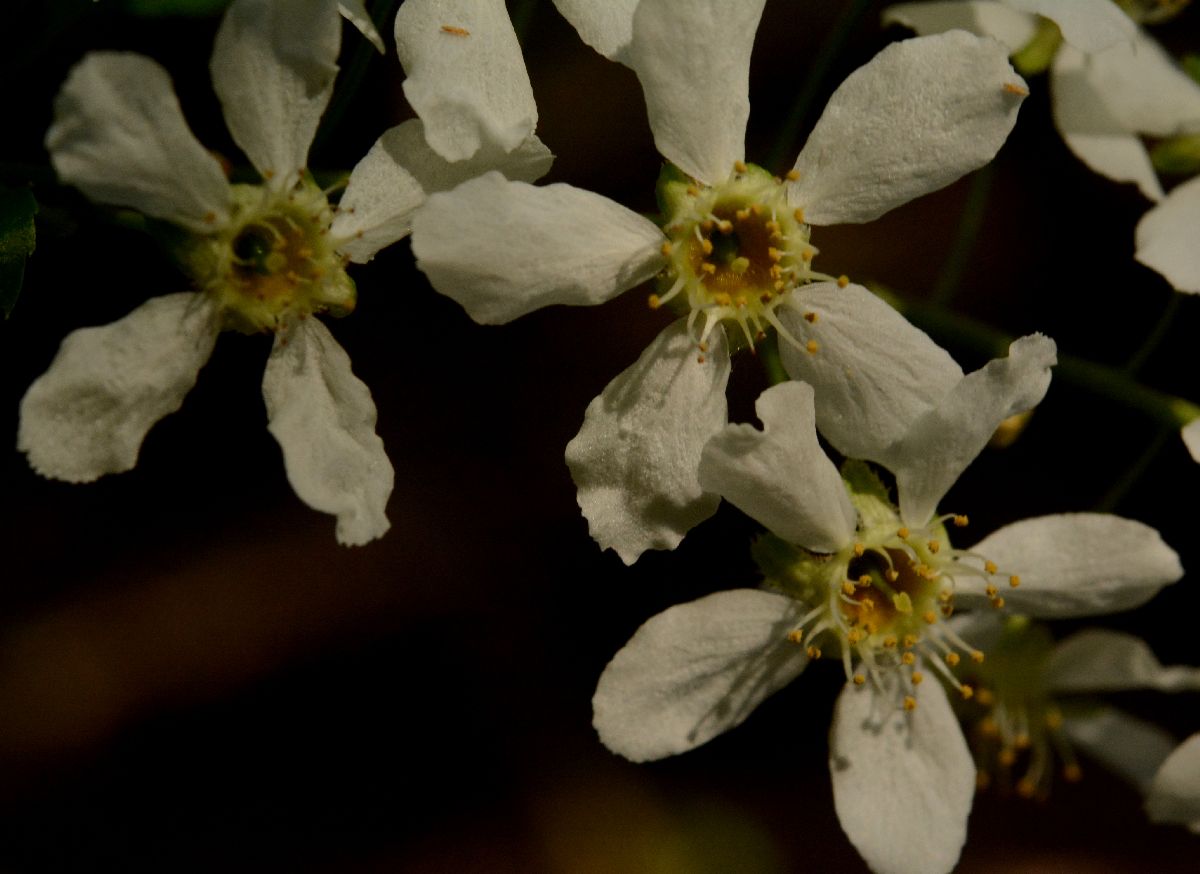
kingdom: Plantae
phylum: Tracheophyta
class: Magnoliopsida
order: Rosales
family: Rosaceae
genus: Prunus
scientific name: Prunus padus
